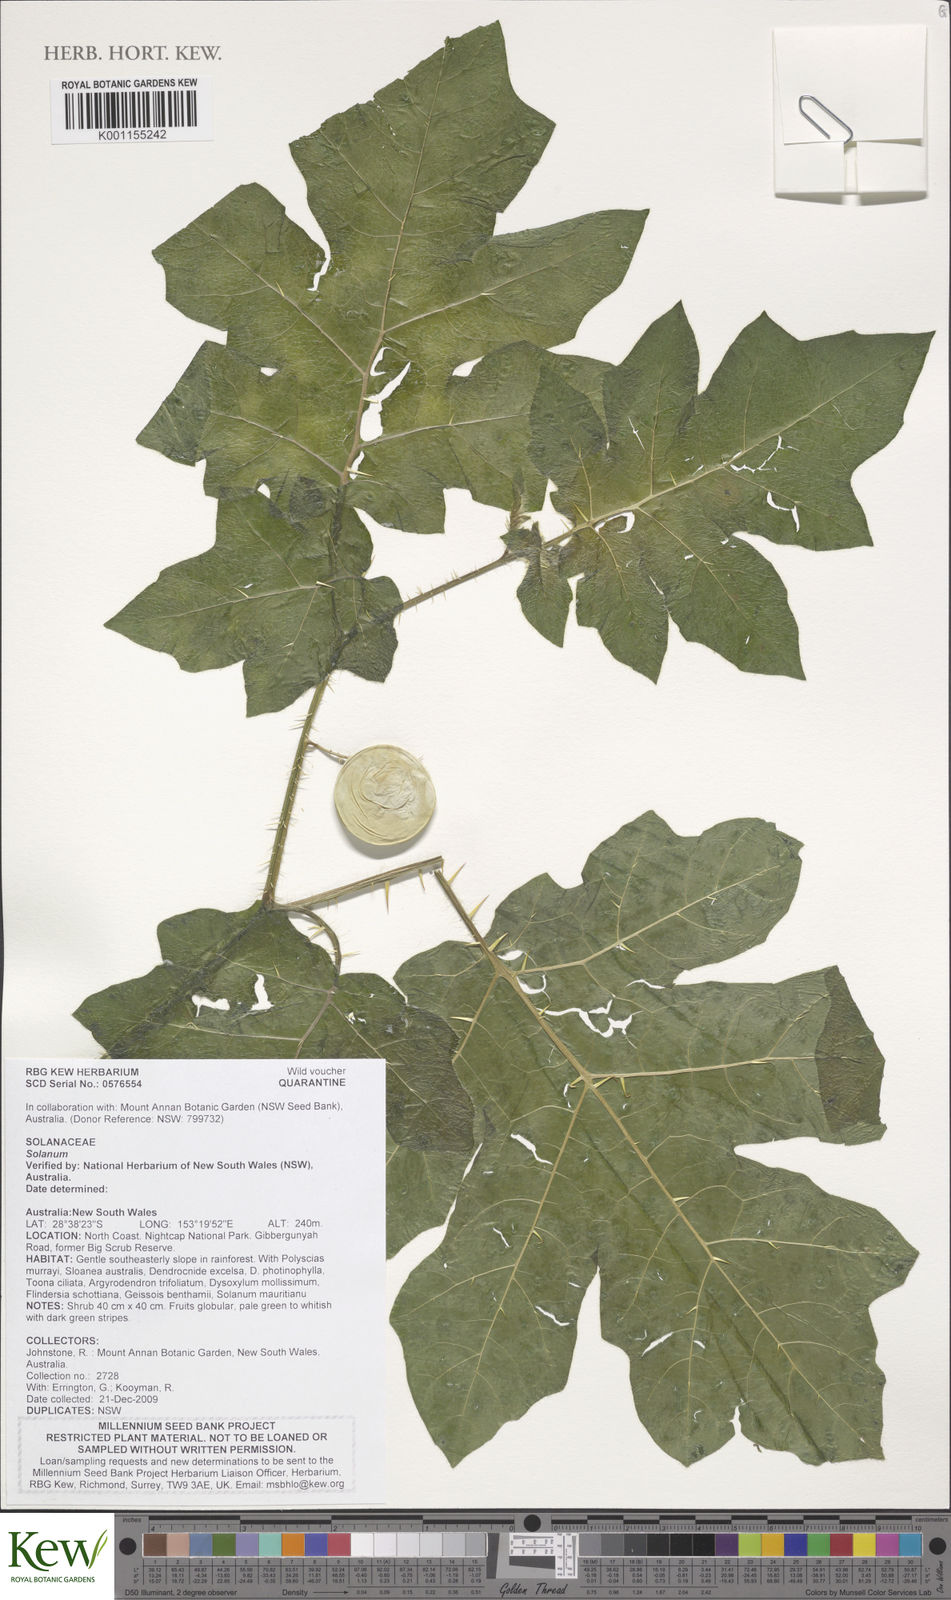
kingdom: Plantae
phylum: Tracheophyta
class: Magnoliopsida
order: Solanales
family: Solanaceae
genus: Solanum
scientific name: Solanum
